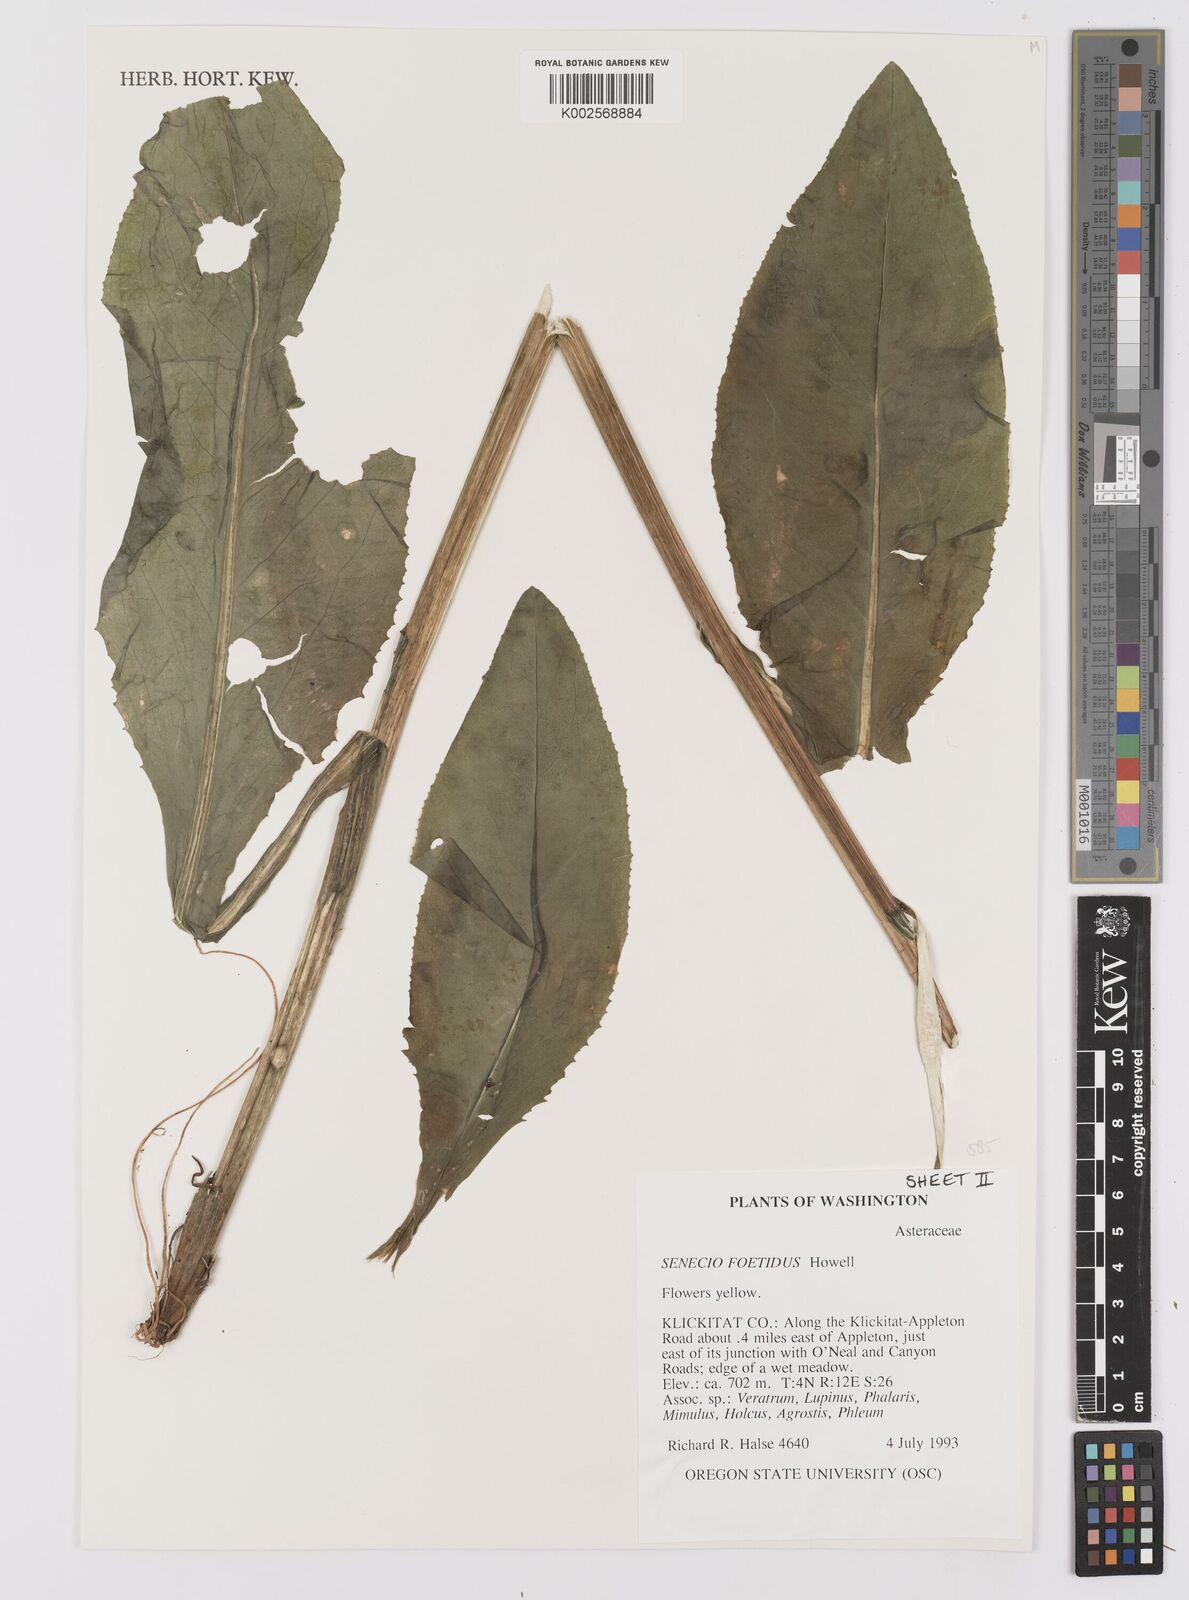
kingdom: Plantae
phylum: Tracheophyta
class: Magnoliopsida
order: Asterales
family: Asteraceae
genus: Senecio
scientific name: Senecio hydrophiloides
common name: Stout meadow groundsel
